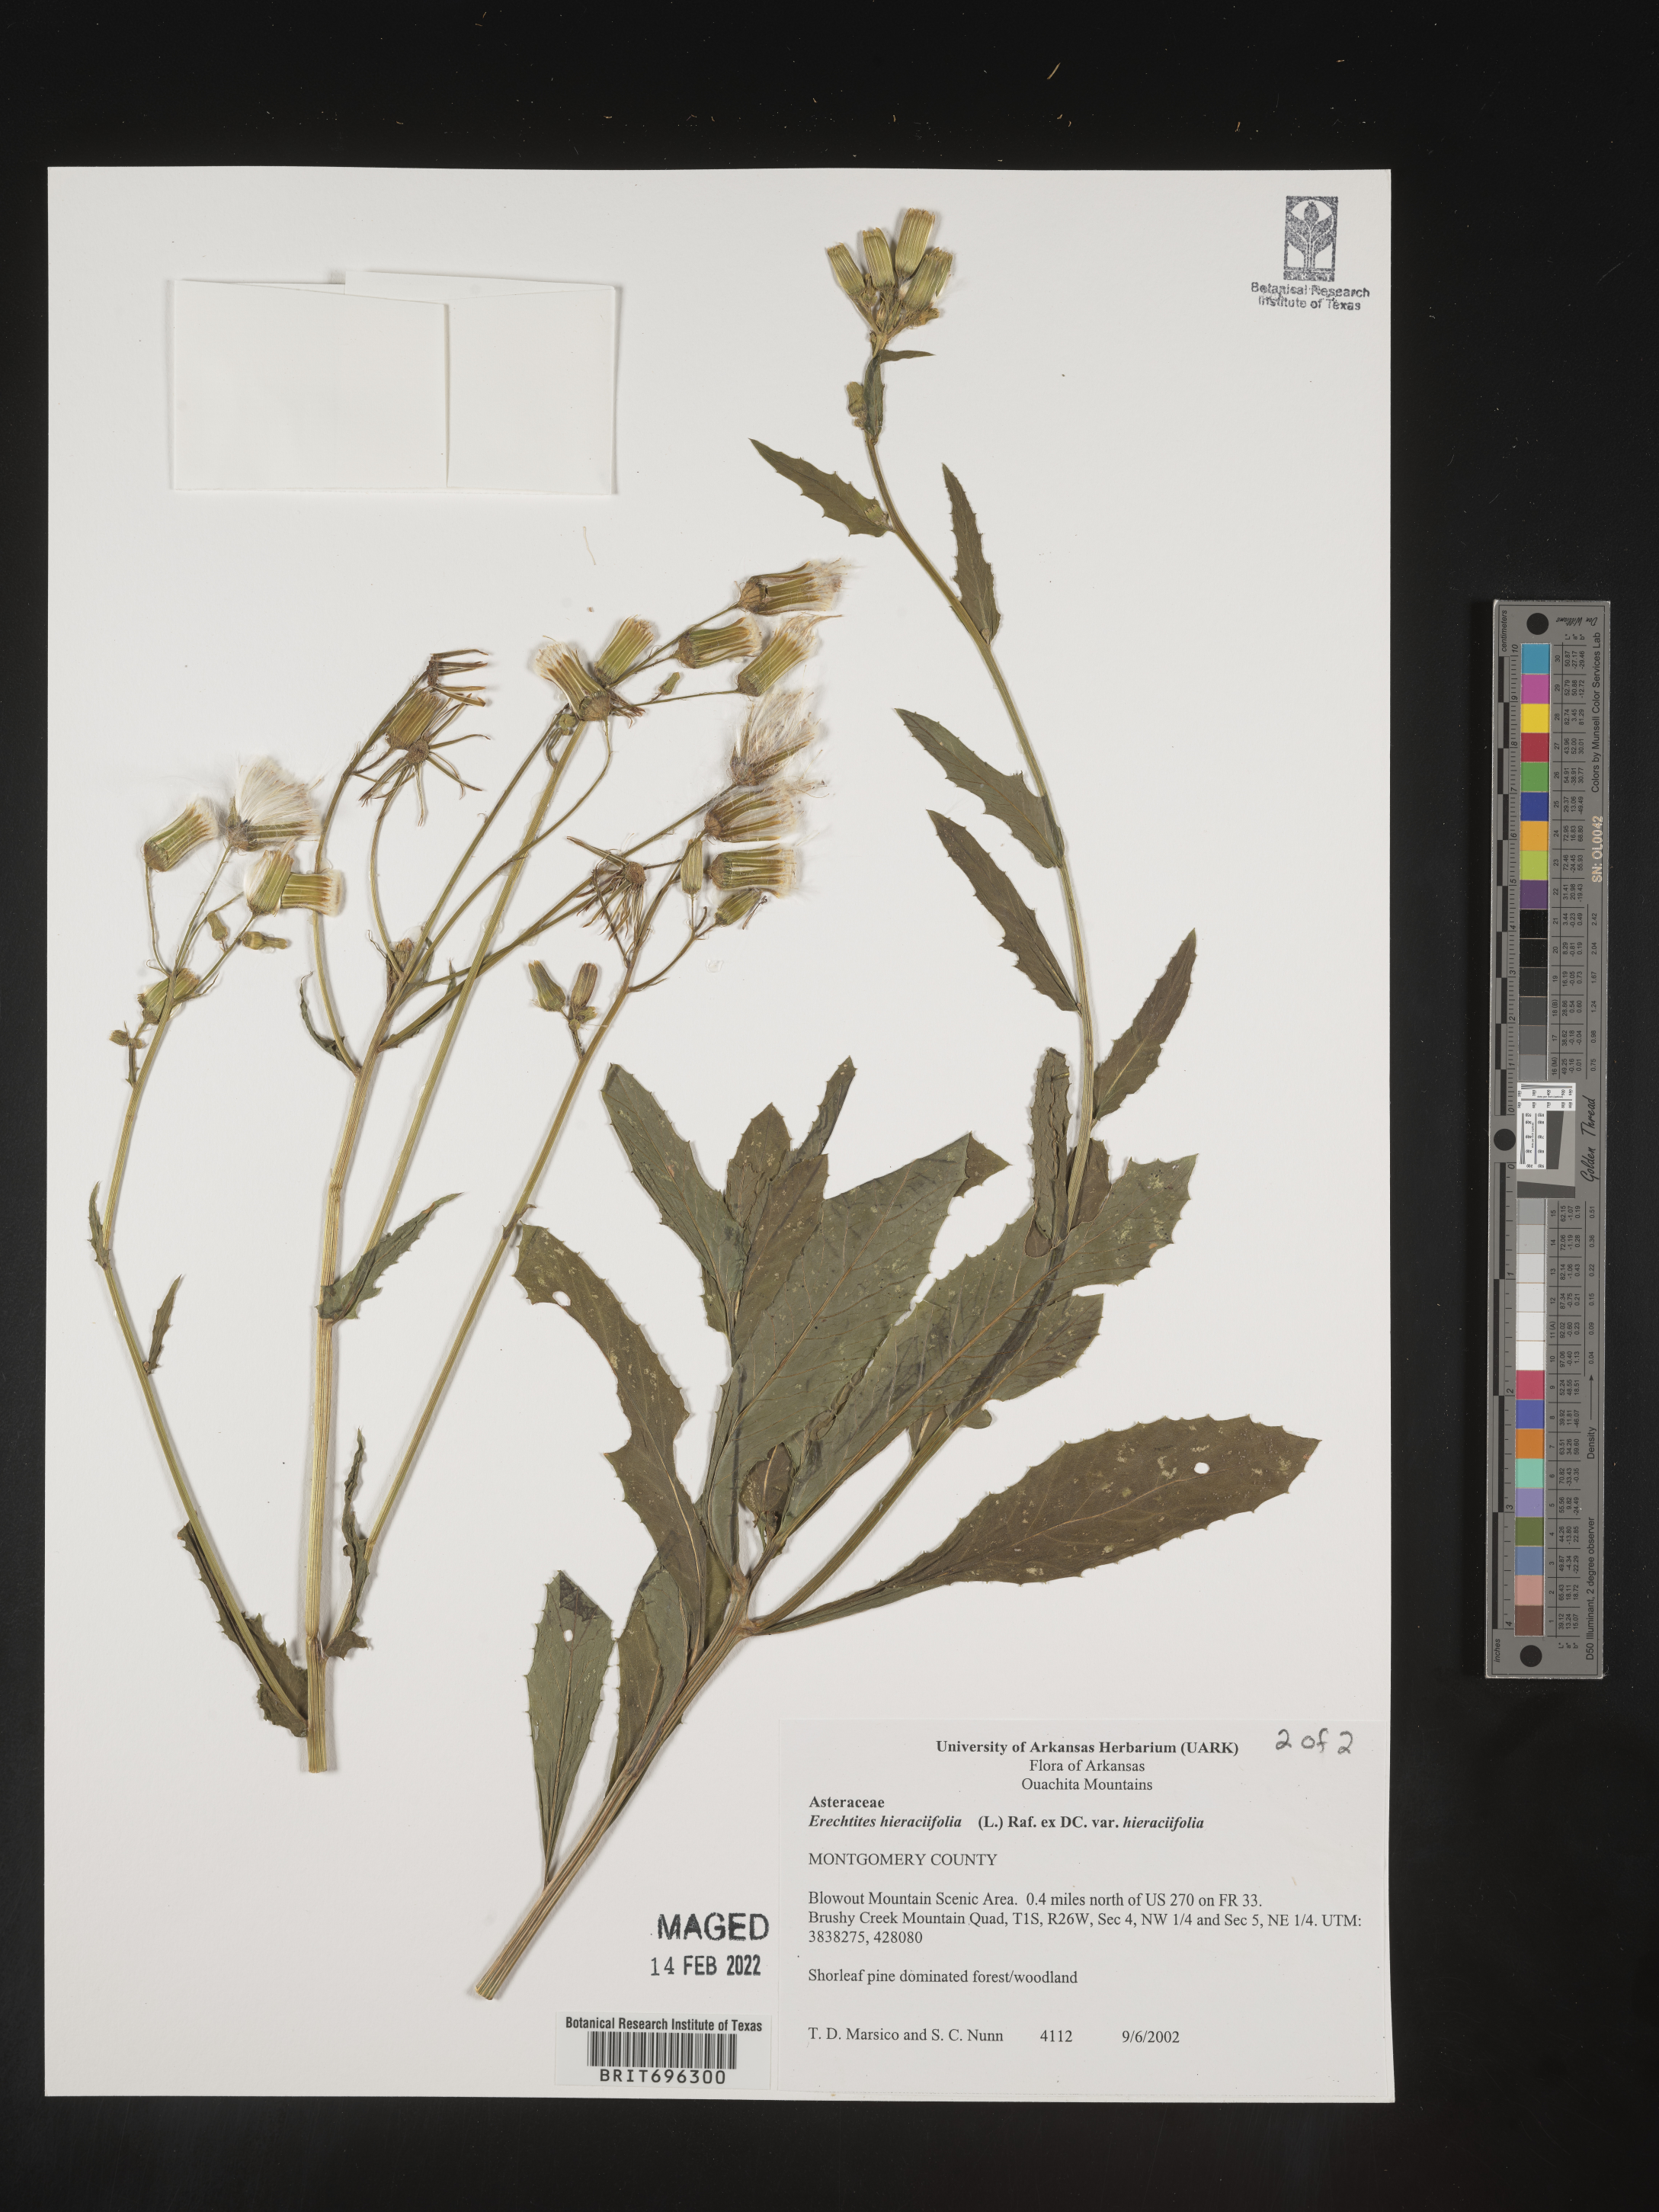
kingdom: Plantae
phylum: Tracheophyta
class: Magnoliopsida
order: Asterales
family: Asteraceae
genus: Erechtites
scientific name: Erechtites hieraciifolius
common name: American burnweed
